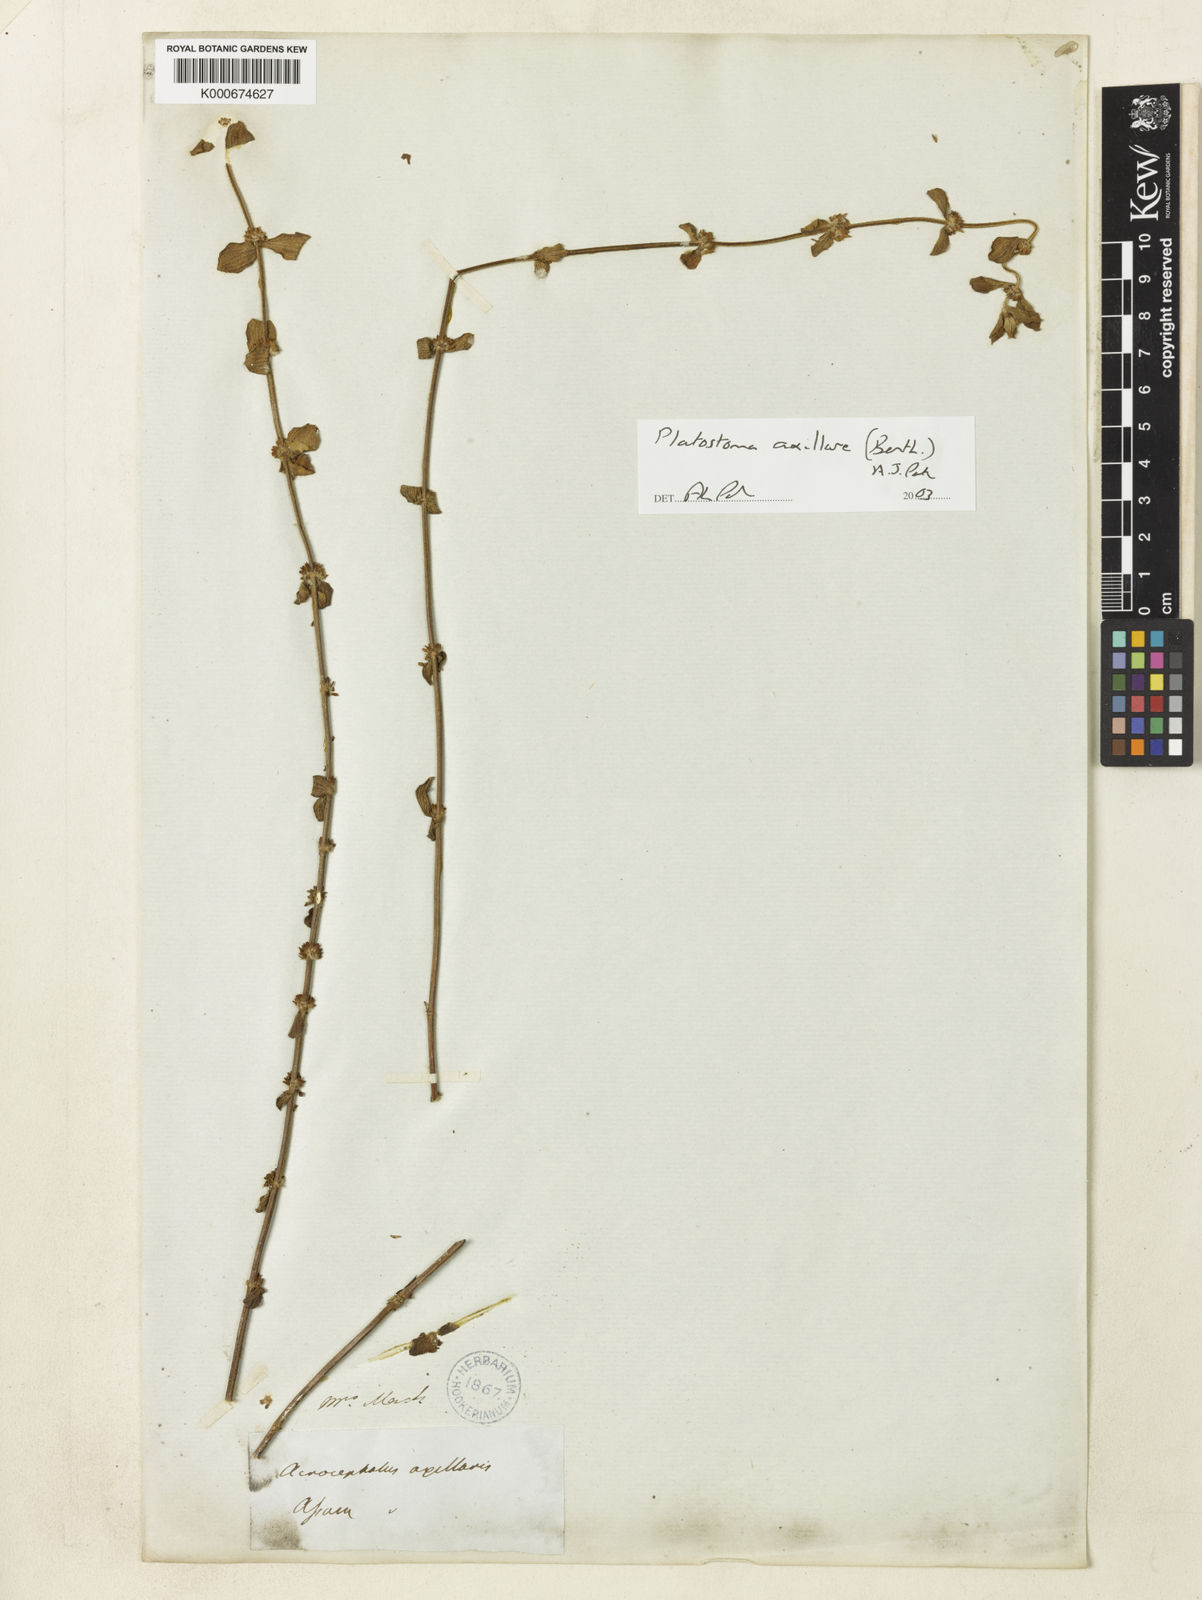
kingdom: Plantae
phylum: Tracheophyta
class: Magnoliopsida
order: Lamiales
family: Lamiaceae
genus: Platostoma
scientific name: Platostoma axillaris
